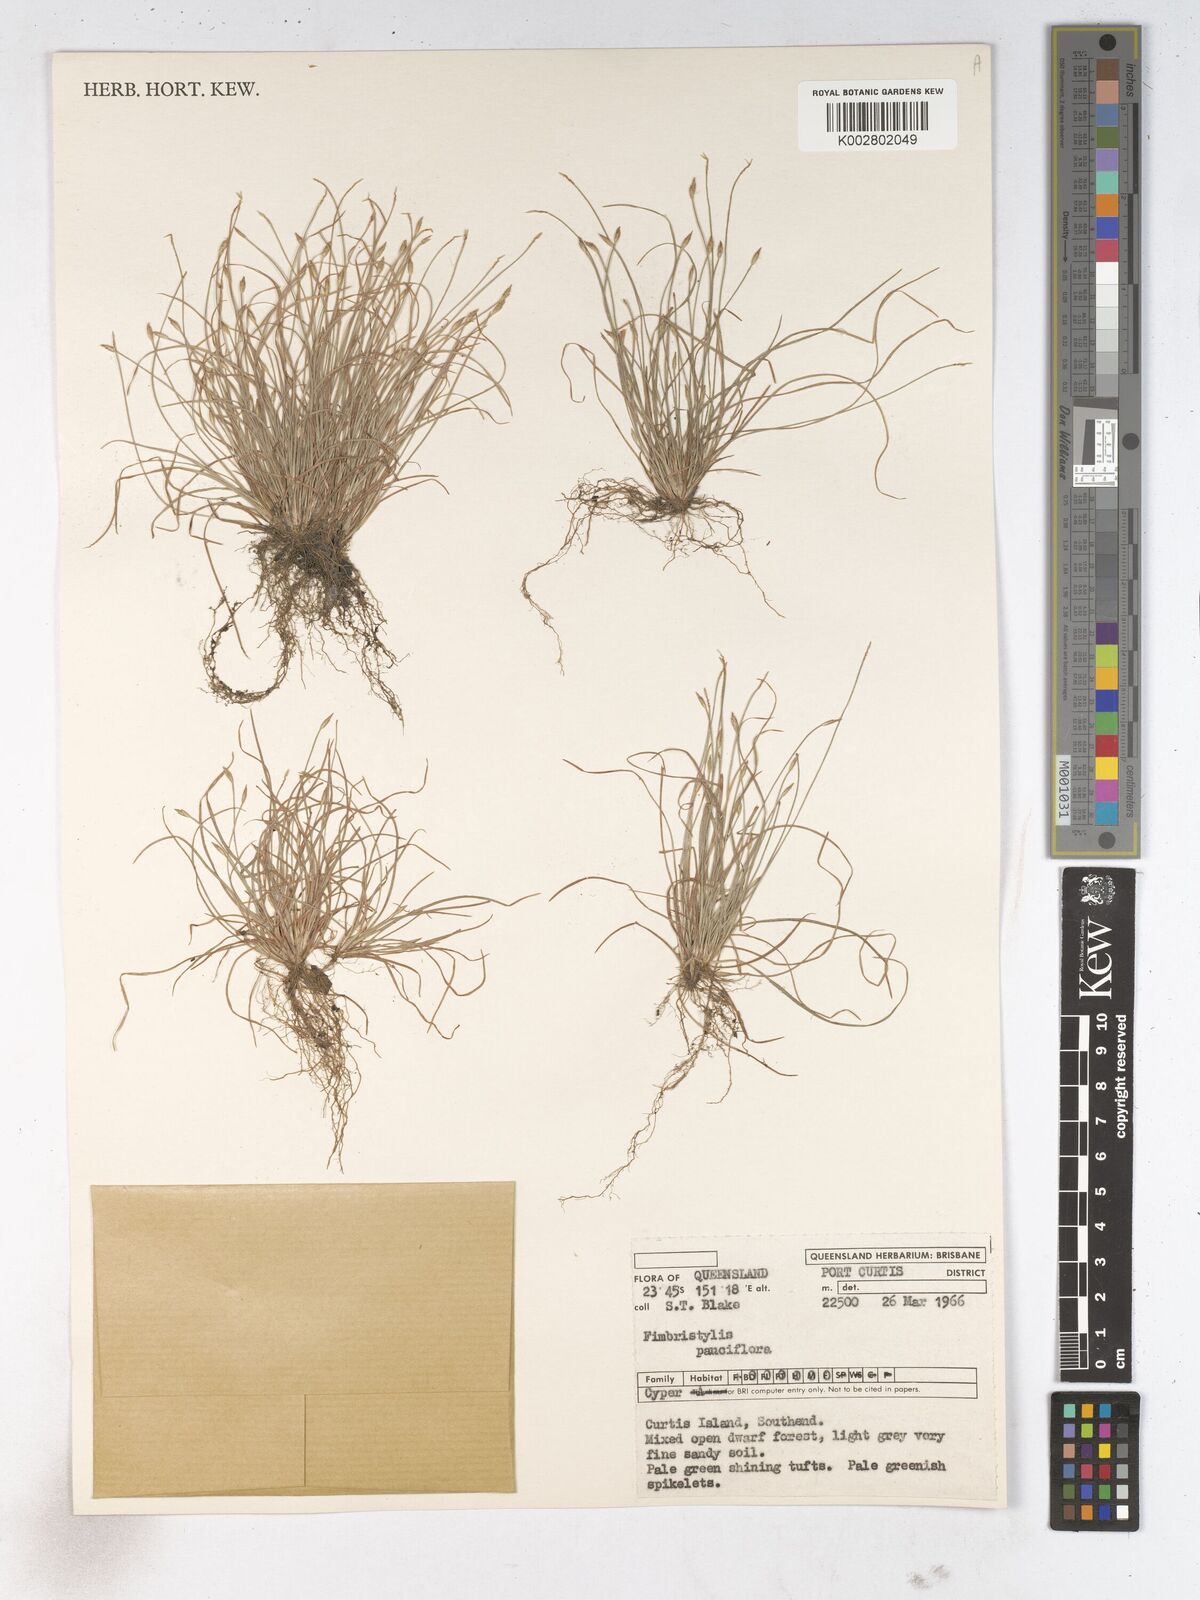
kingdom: Plantae
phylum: Tracheophyta
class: Liliopsida
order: Poales
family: Cyperaceae
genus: Fimbristylis
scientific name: Fimbristylis pauciflora
